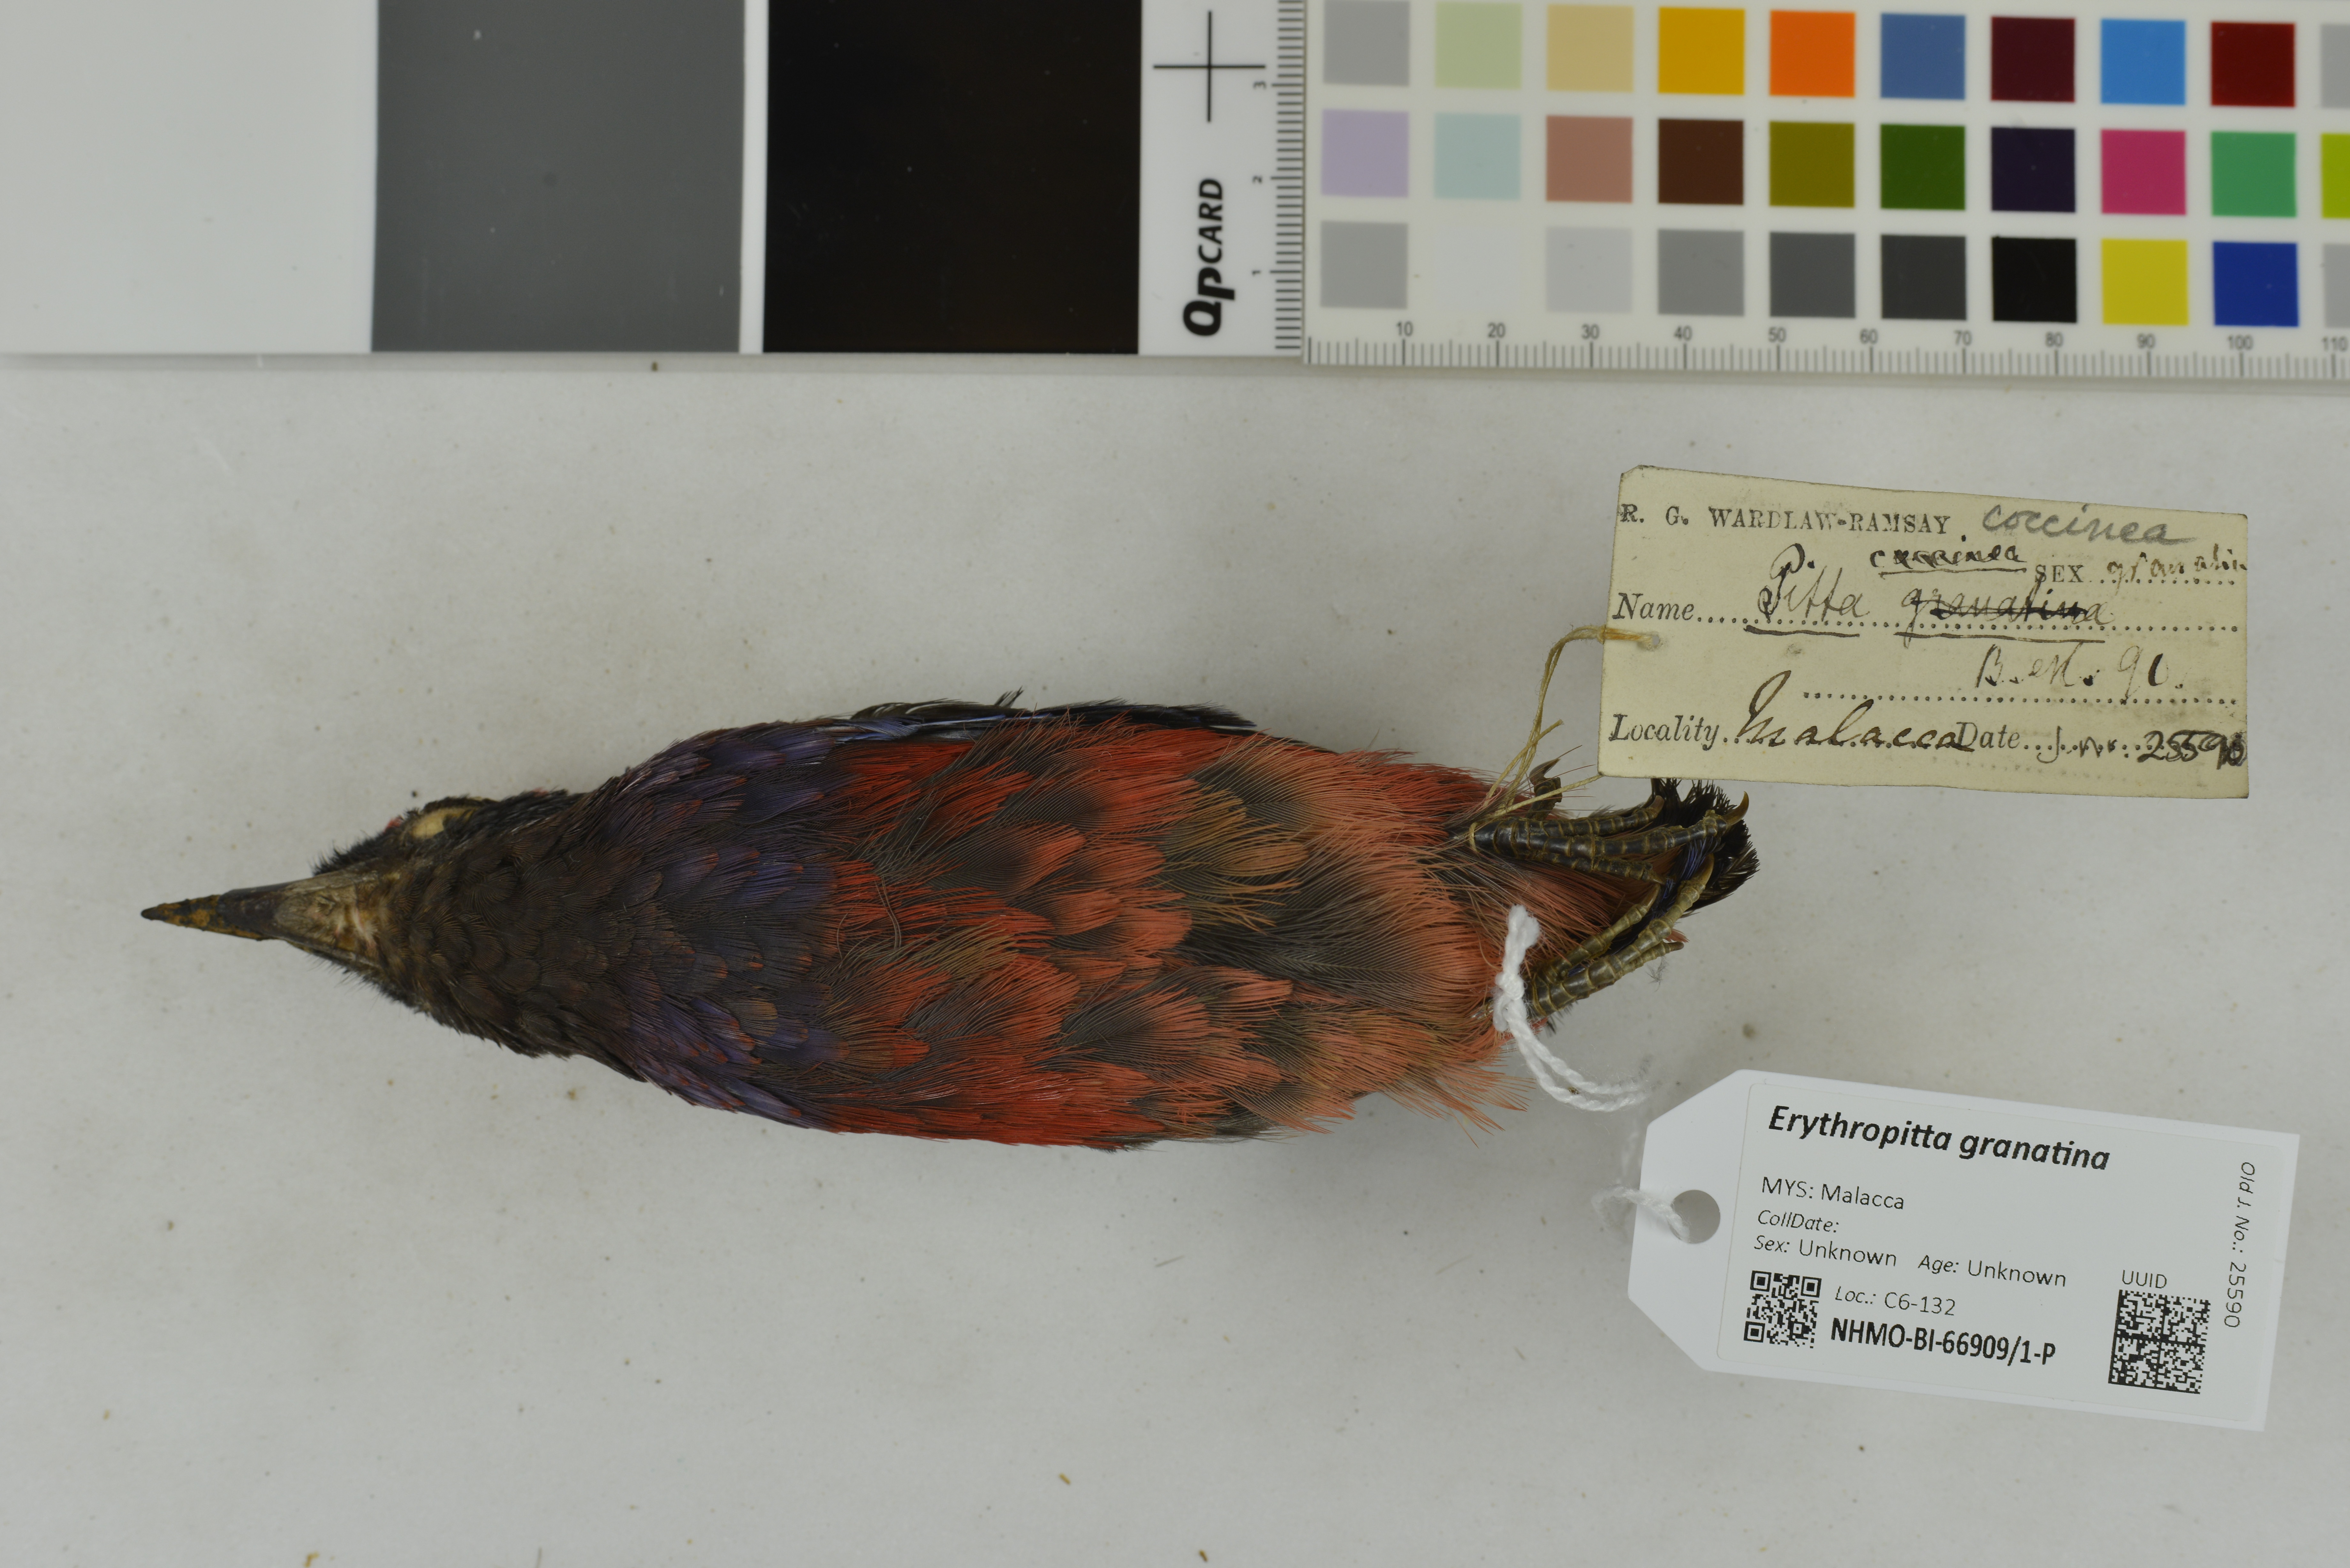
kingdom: Animalia
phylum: Chordata
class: Aves
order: Passeriformes
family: Pittidae
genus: Pitta
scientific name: Pitta granatina
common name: Garnet pitta
